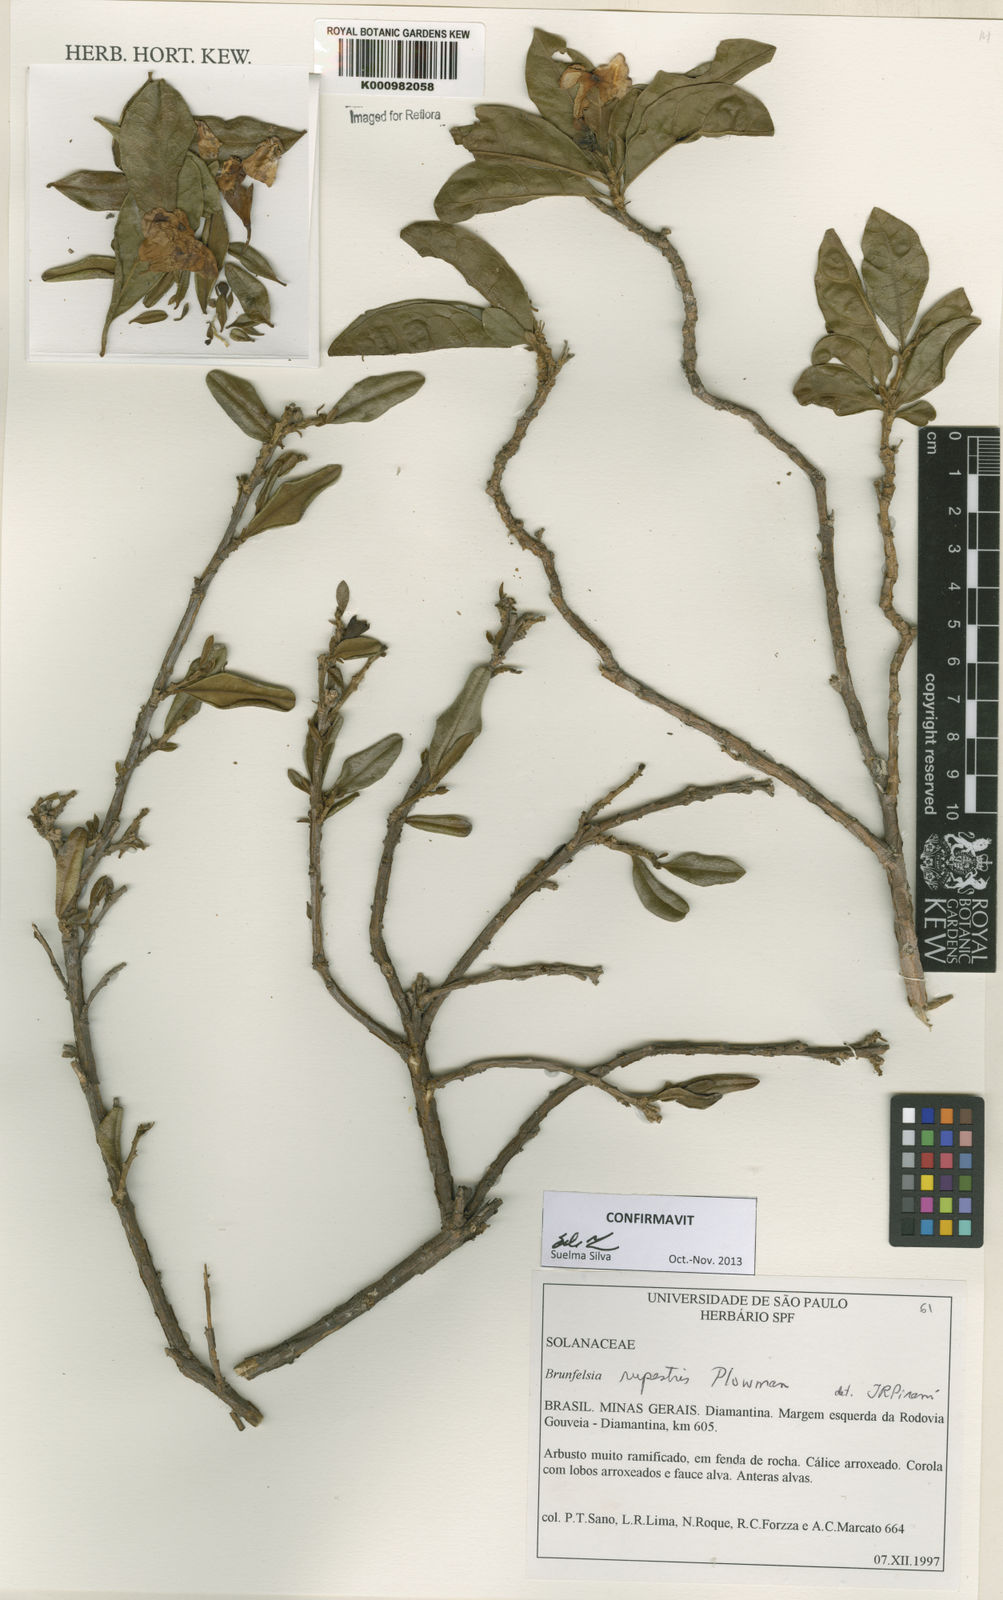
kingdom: Plantae
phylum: Tracheophyta
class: Magnoliopsida
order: Solanales
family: Solanaceae
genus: Brunfelsia
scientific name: Brunfelsia rupestris
